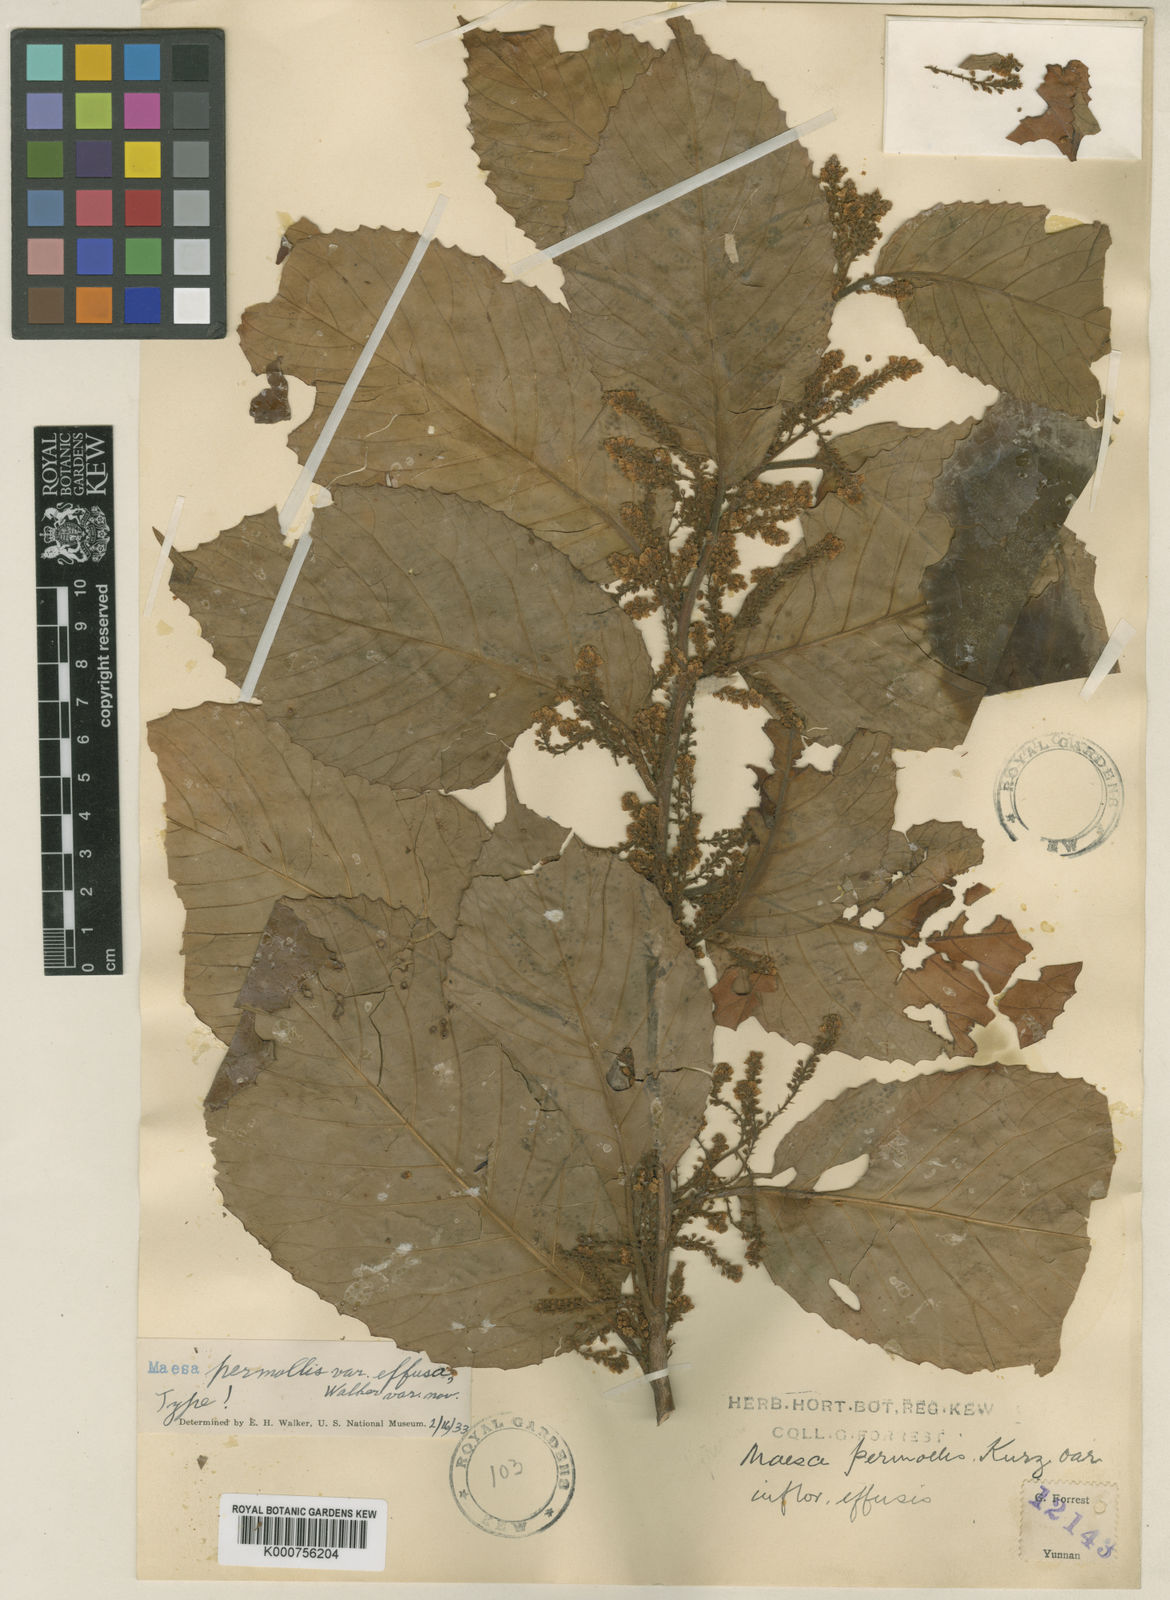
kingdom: Plantae
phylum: Tracheophyta
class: Magnoliopsida
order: Ericales
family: Primulaceae
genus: Maesa
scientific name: Maesa permollis
